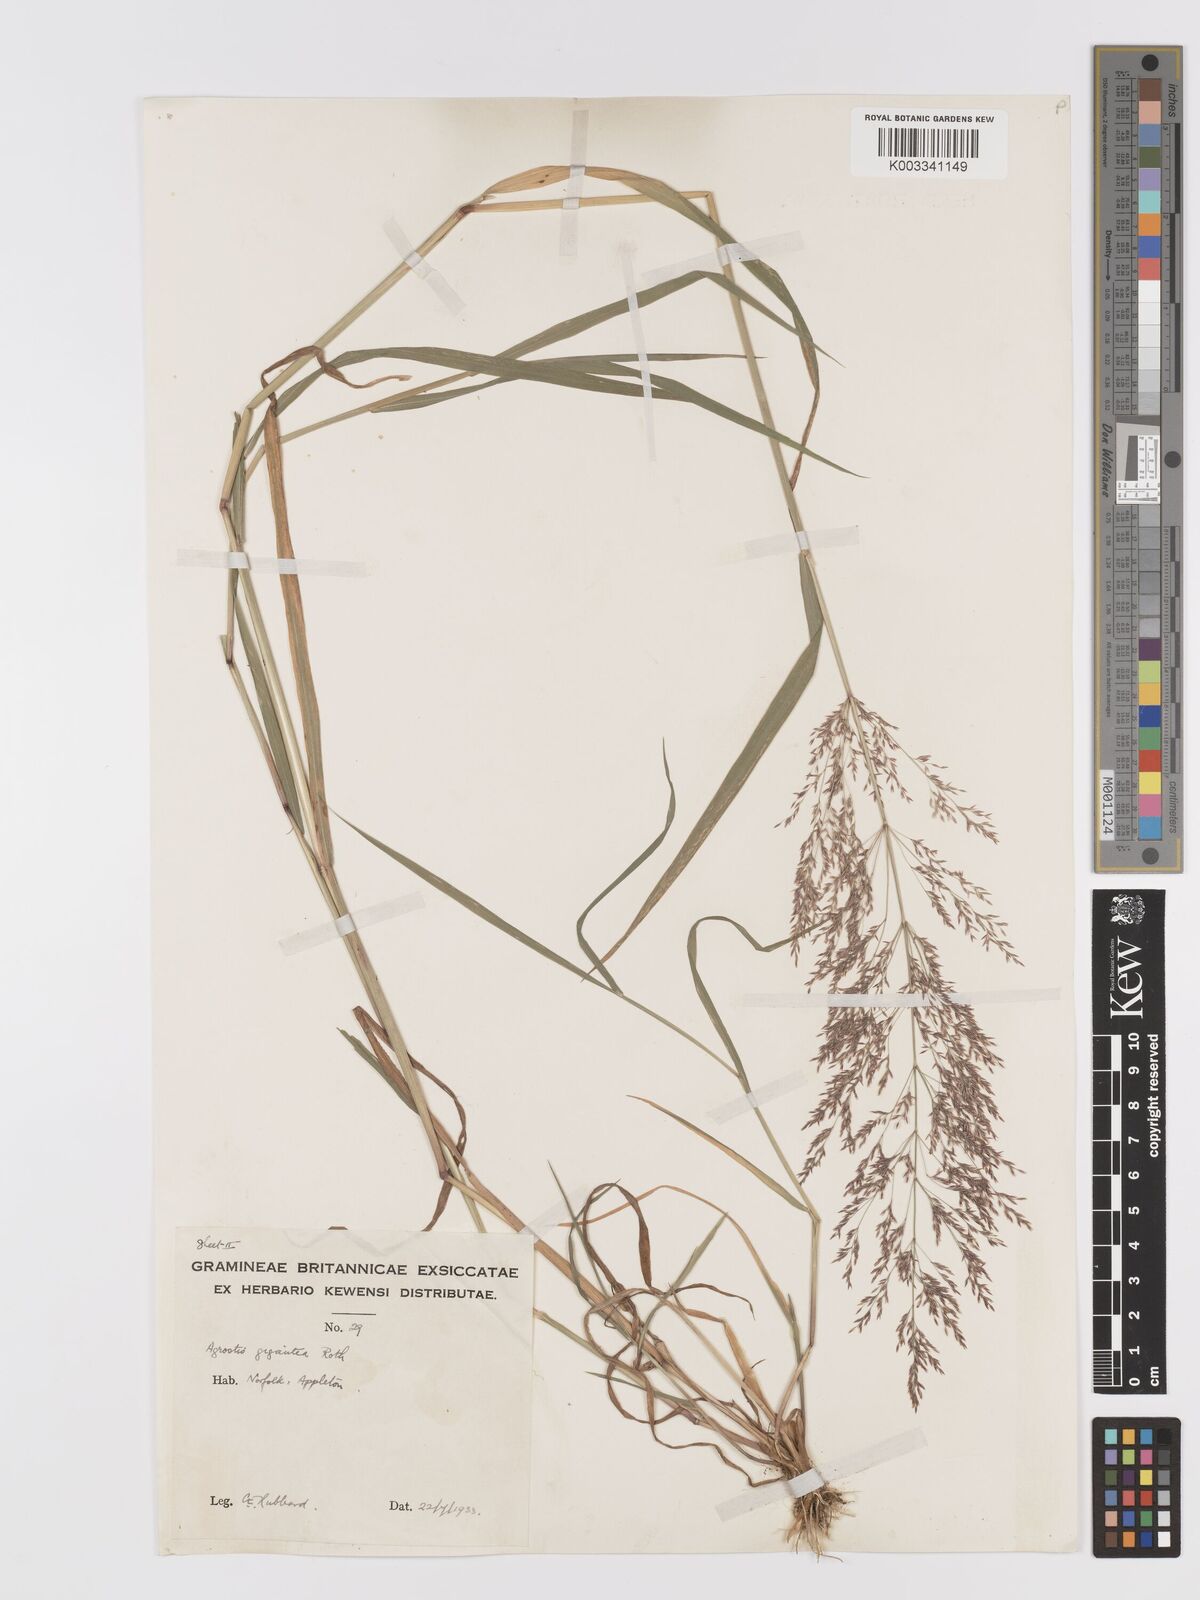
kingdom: Plantae
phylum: Tracheophyta
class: Liliopsida
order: Poales
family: Poaceae
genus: Agrostis
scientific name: Agrostis gigantea
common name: Black bent
